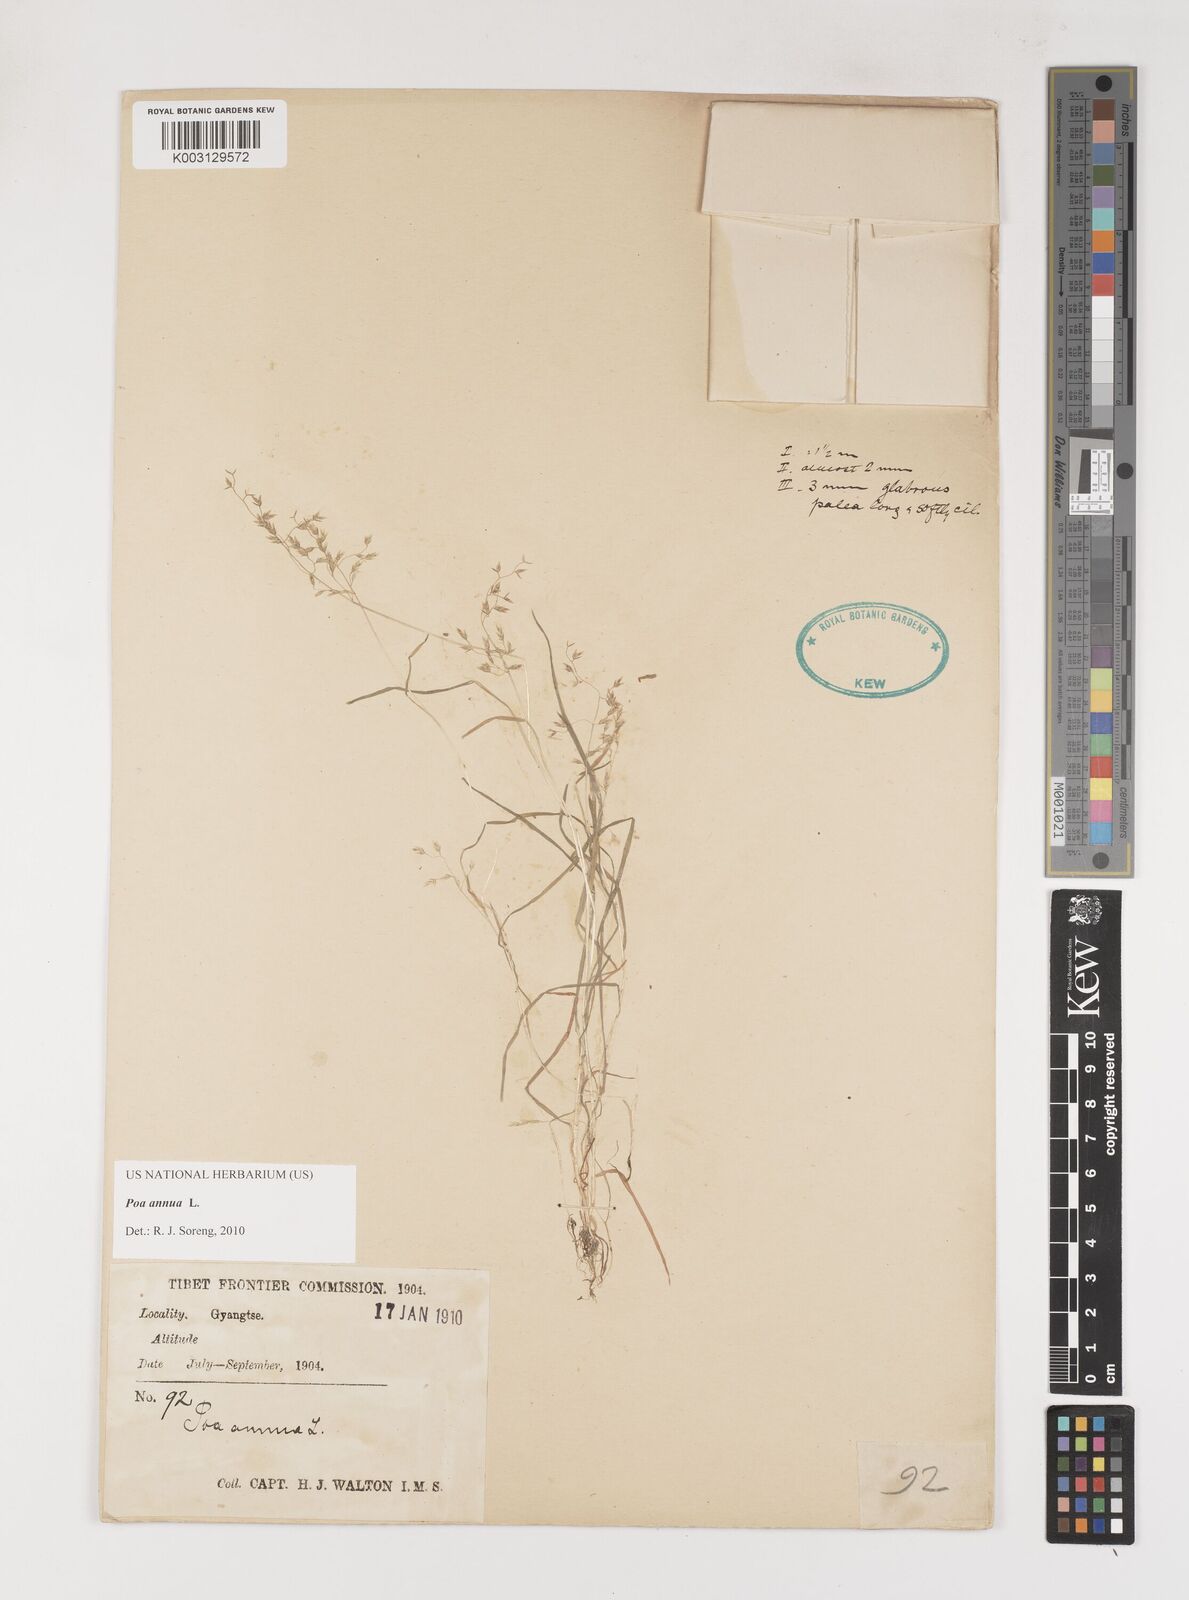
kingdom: Plantae
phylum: Tracheophyta
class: Liliopsida
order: Poales
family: Poaceae
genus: Poa
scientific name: Poa annua
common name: Annual bluegrass
